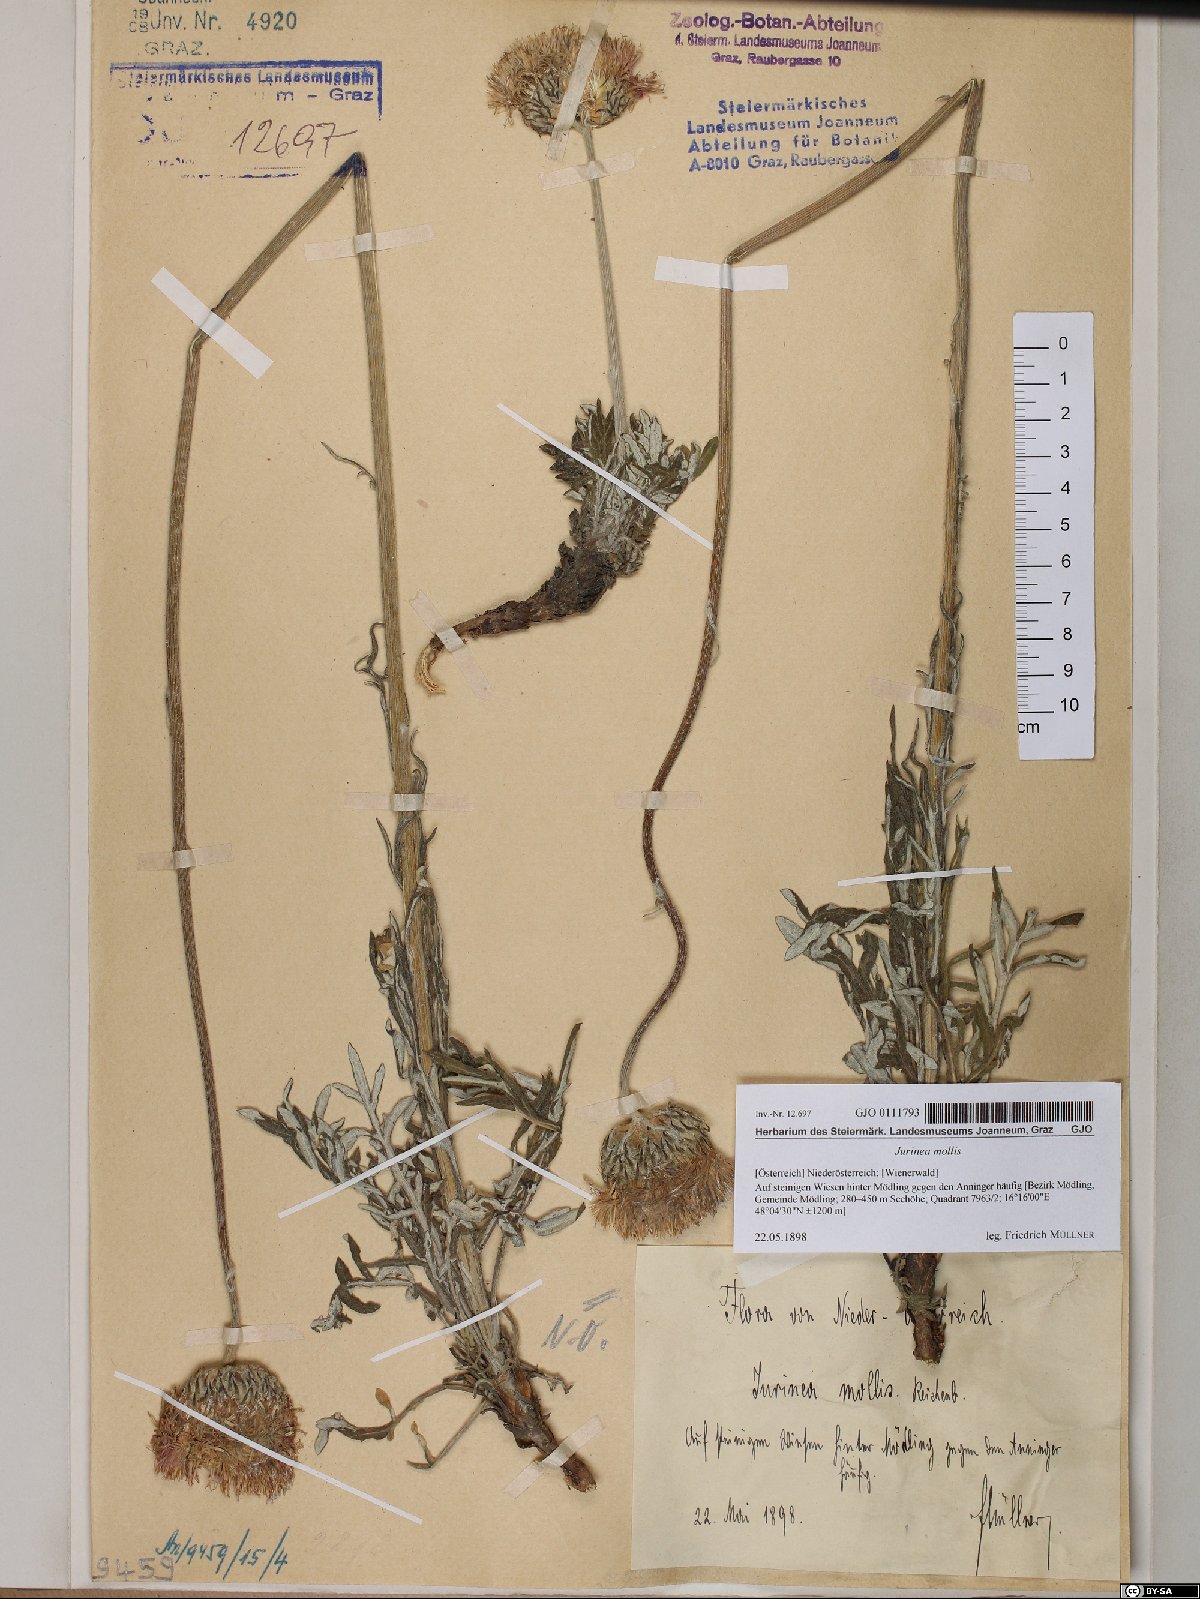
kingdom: Plantae
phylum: Tracheophyta
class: Magnoliopsida
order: Asterales
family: Asteraceae
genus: Jurinea
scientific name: Jurinea mollis
